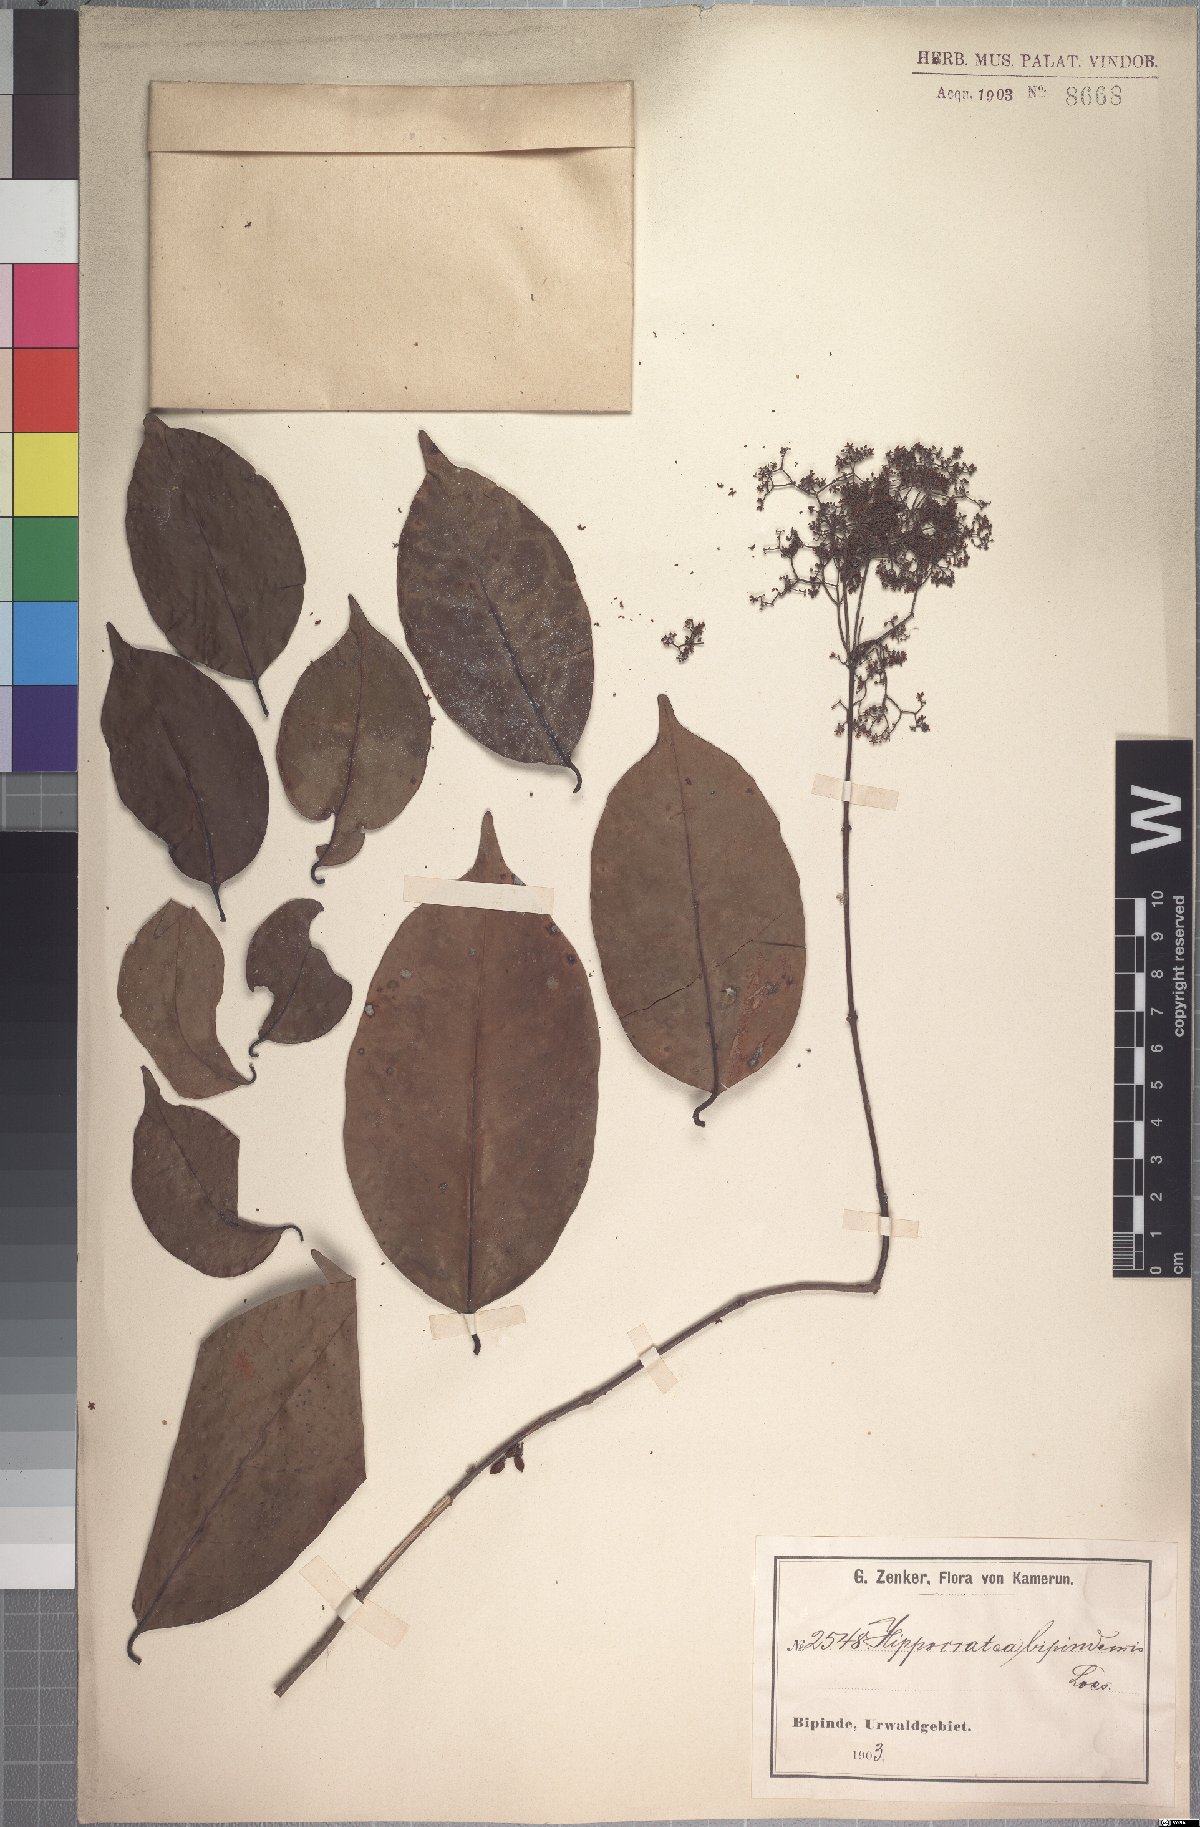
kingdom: Plantae
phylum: Tracheophyta
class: Magnoliopsida
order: Celastrales
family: Celastraceae
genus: Elachyptera
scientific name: Elachyptera bipindensis
